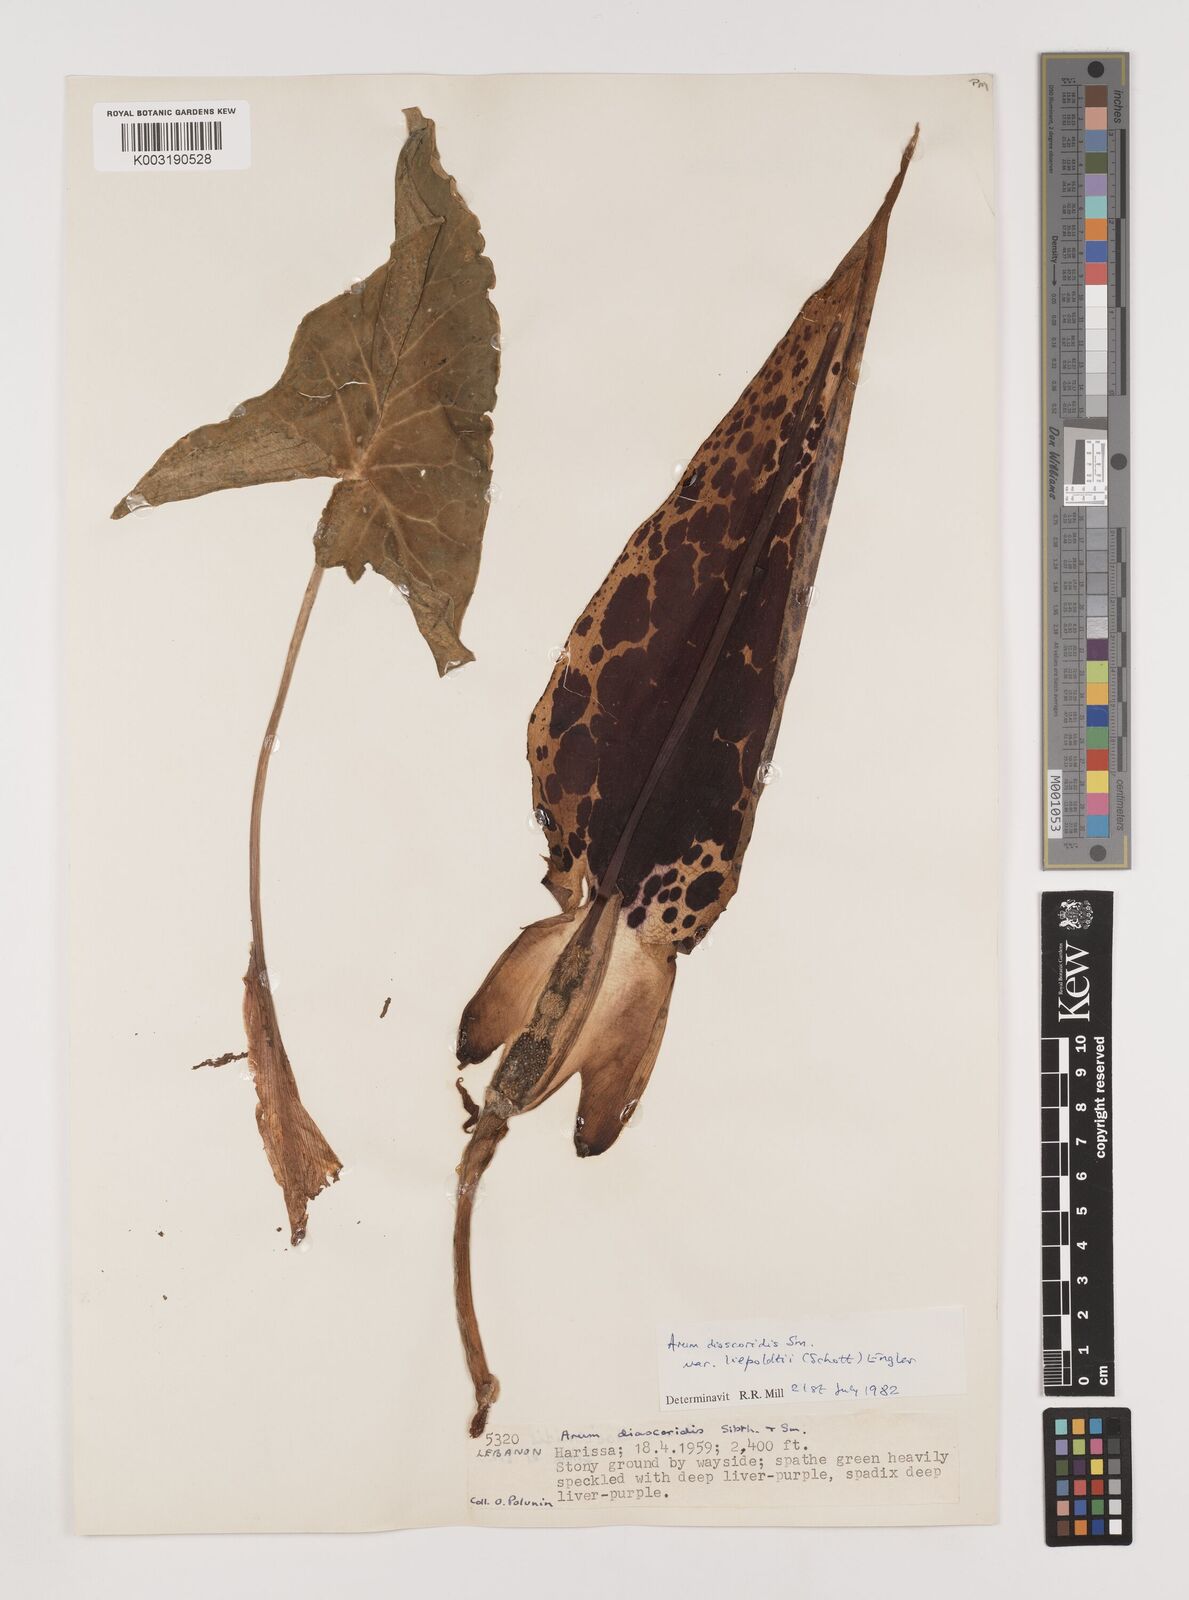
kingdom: Plantae
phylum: Tracheophyta
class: Liliopsida
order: Alismatales
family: Araceae
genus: Arum
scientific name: Arum dioscoridis
